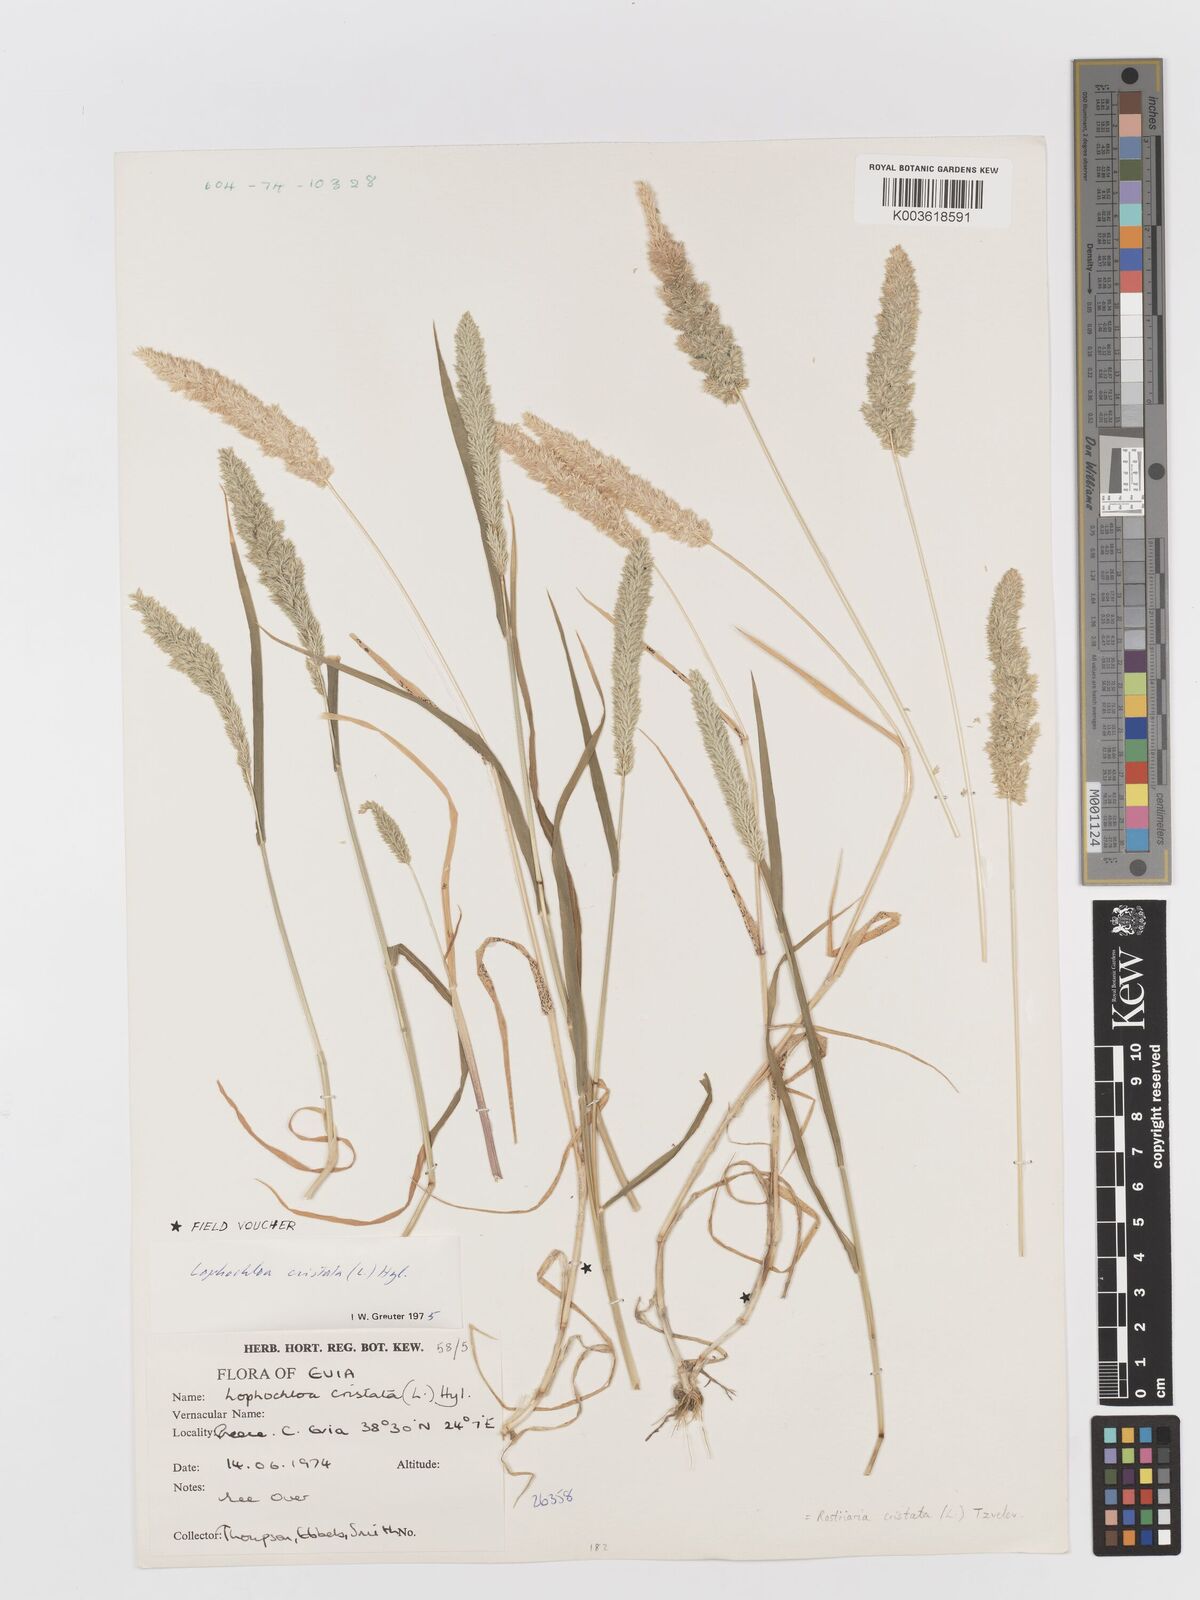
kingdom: Plantae
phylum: Tracheophyta
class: Liliopsida
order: Poales
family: Poaceae
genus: Rostraria
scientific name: Rostraria cristata
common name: Mediterranean hair-grass
